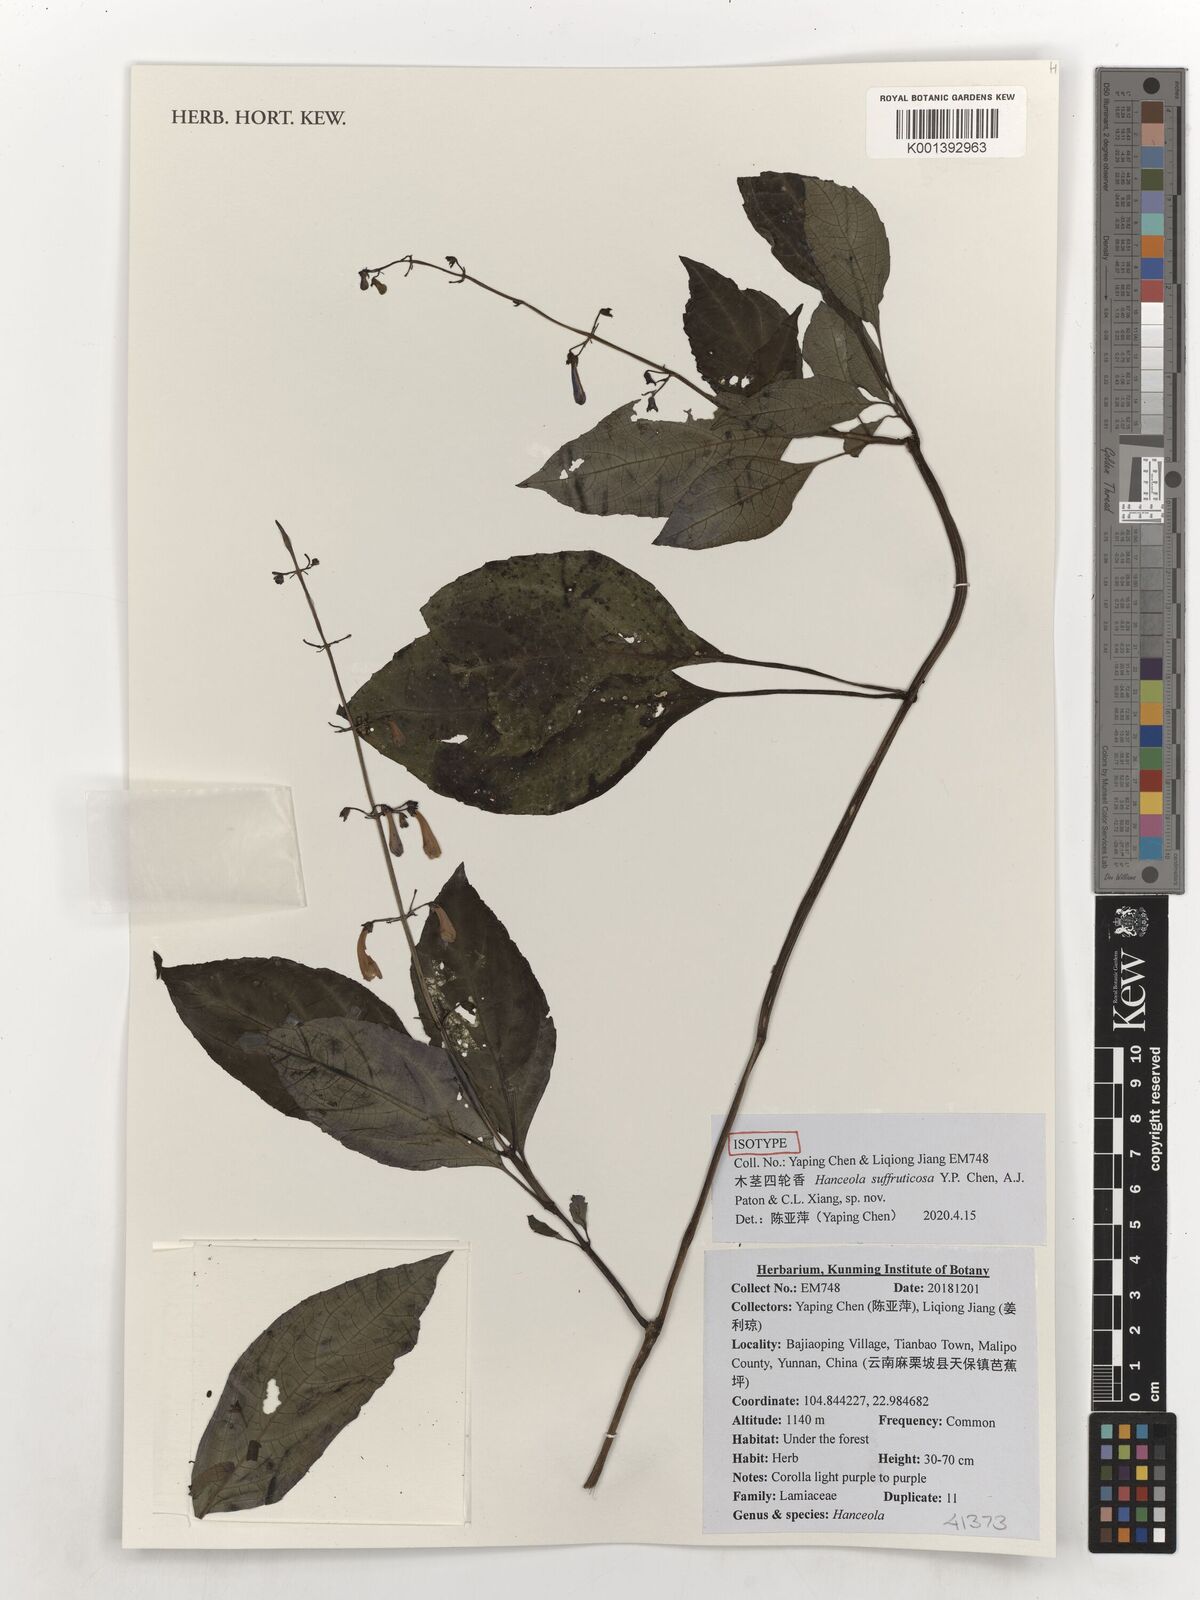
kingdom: Plantae
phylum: Tracheophyta
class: Magnoliopsida
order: Lamiales
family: Lamiaceae
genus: Hanceola
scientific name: Hanceola
